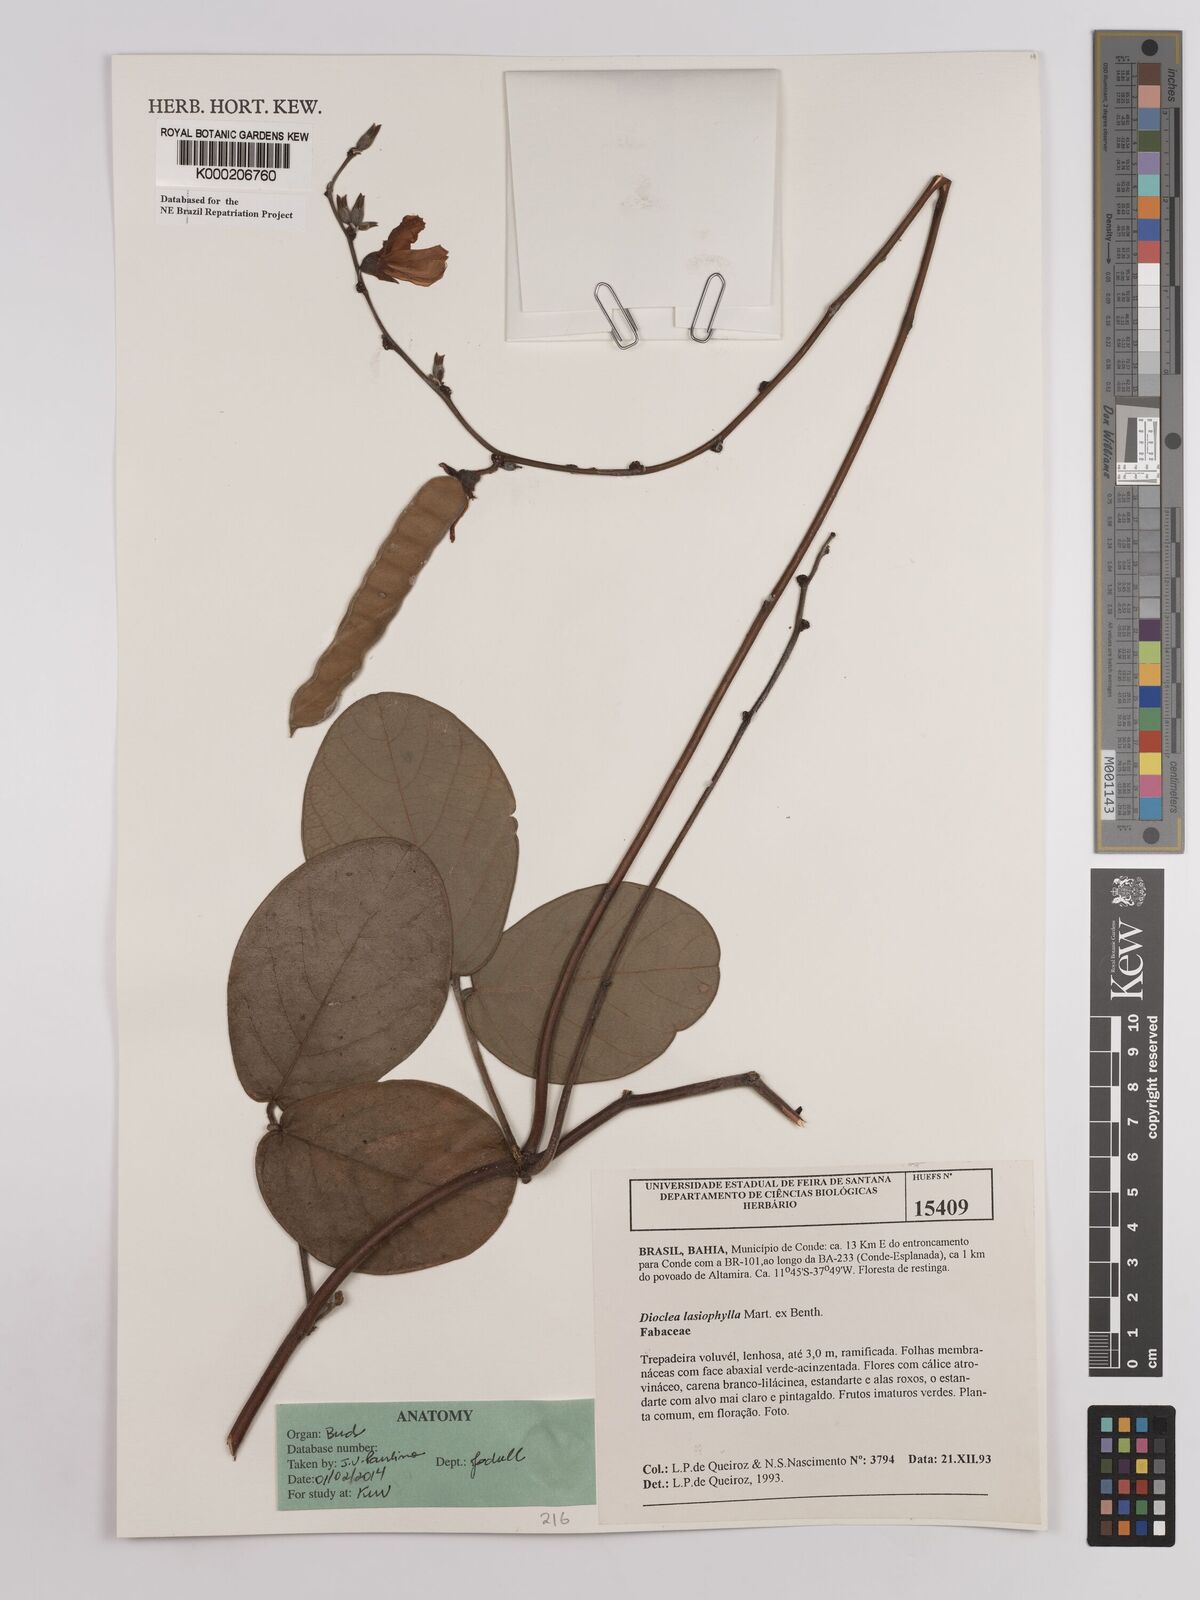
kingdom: Plantae
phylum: Tracheophyta
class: Magnoliopsida
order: Fabales
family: Fabaceae
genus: Dioclea
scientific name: Dioclea lasiophylla
